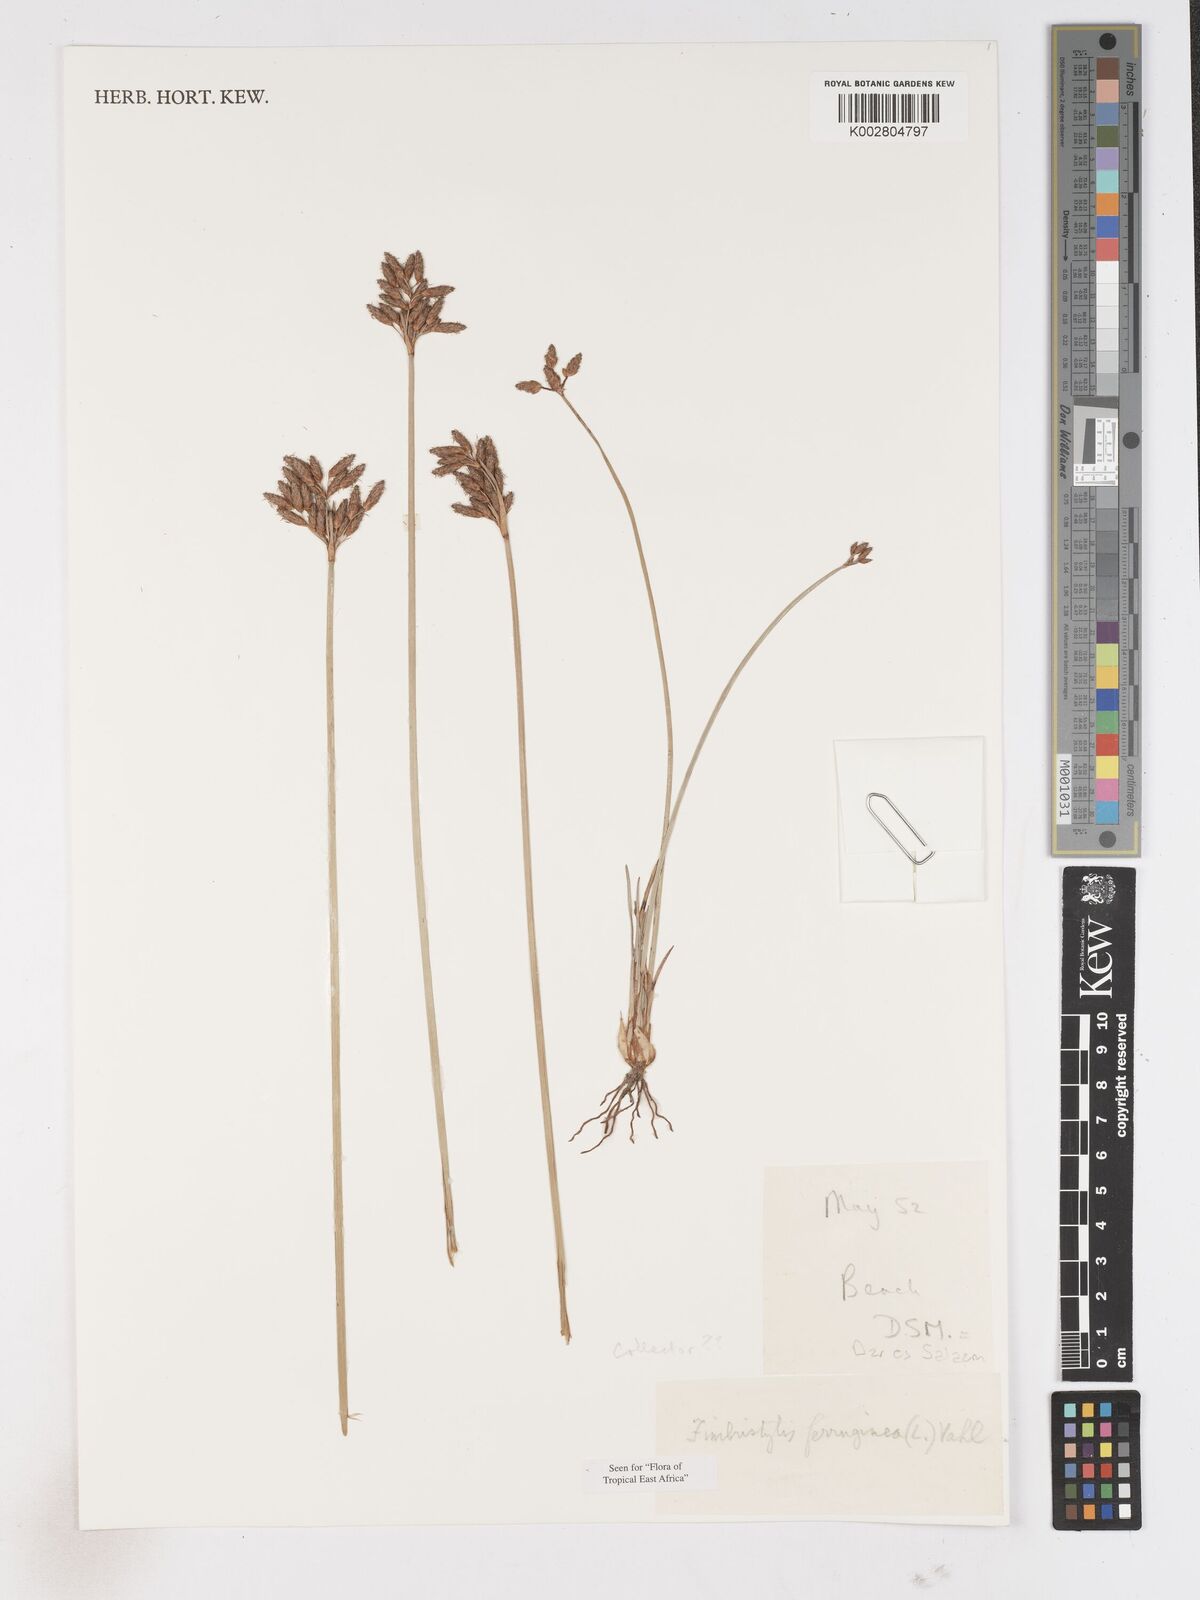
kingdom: Plantae
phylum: Tracheophyta
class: Liliopsida
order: Poales
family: Cyperaceae
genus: Fimbristylis
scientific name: Fimbristylis ferruginea
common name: West indian fimbry
